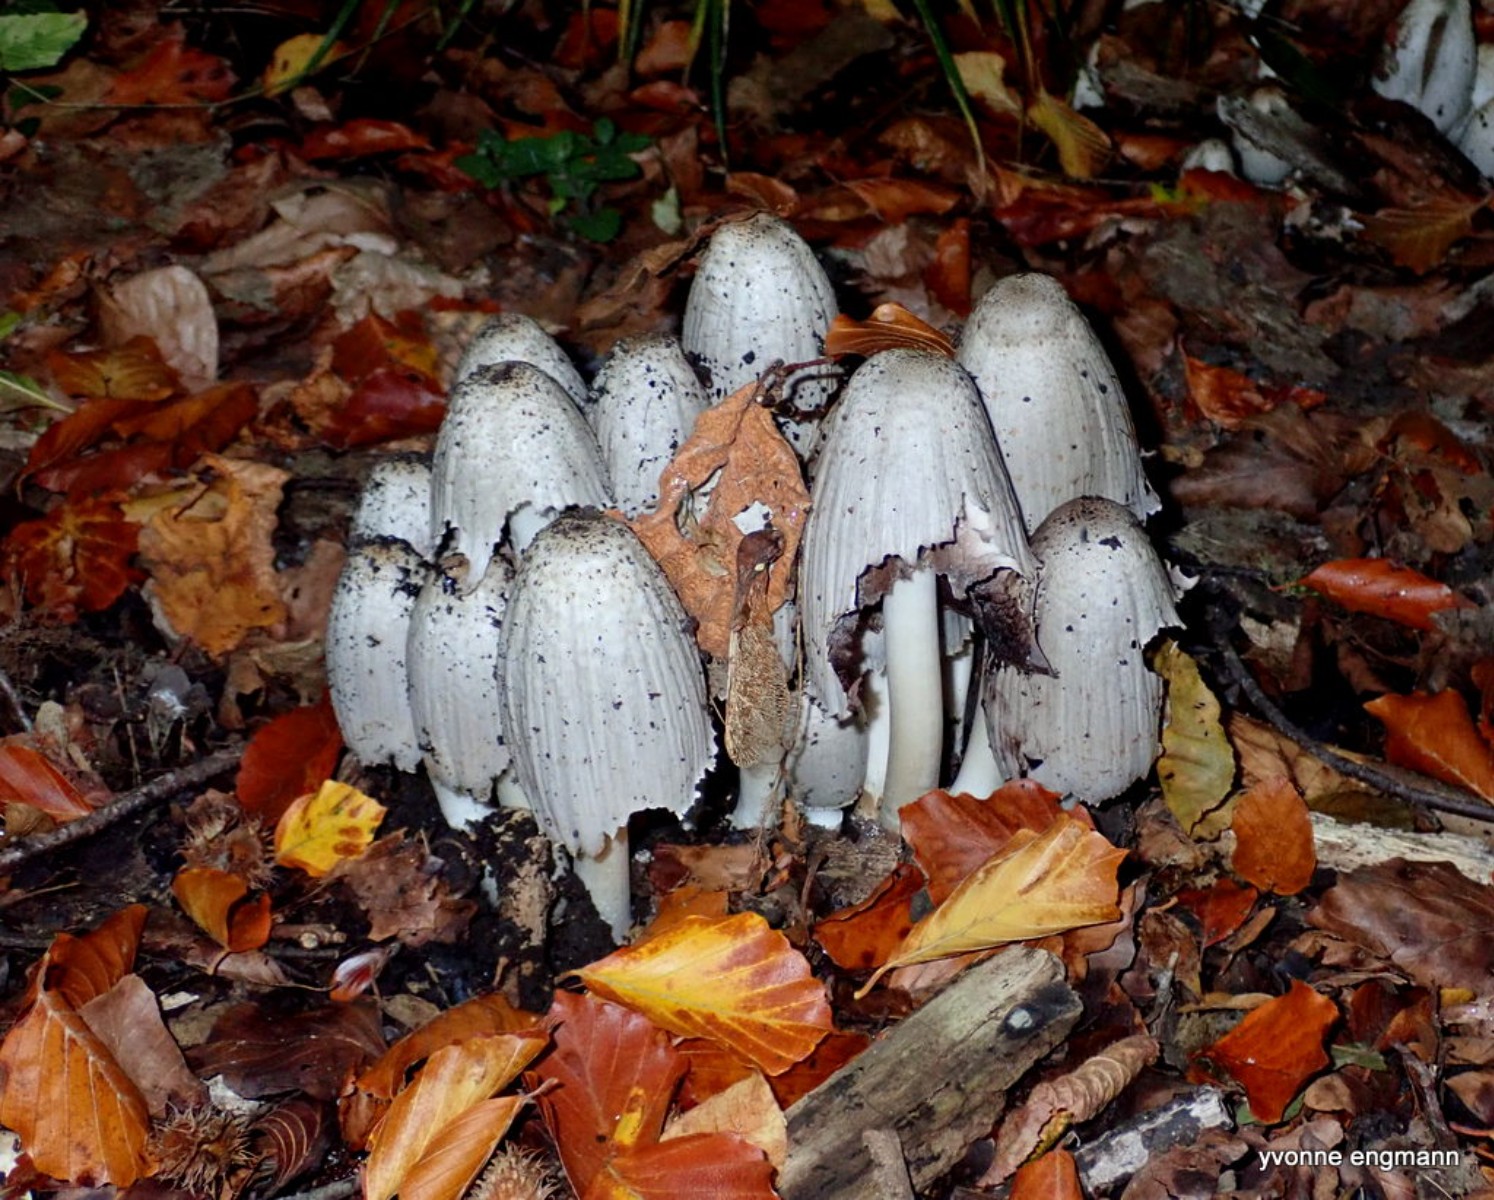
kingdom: Fungi
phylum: Basidiomycota
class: Agaricomycetes
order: Agaricales
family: Psathyrellaceae
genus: Coprinopsis
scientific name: Coprinopsis atramentaria
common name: almindelig blækhat
